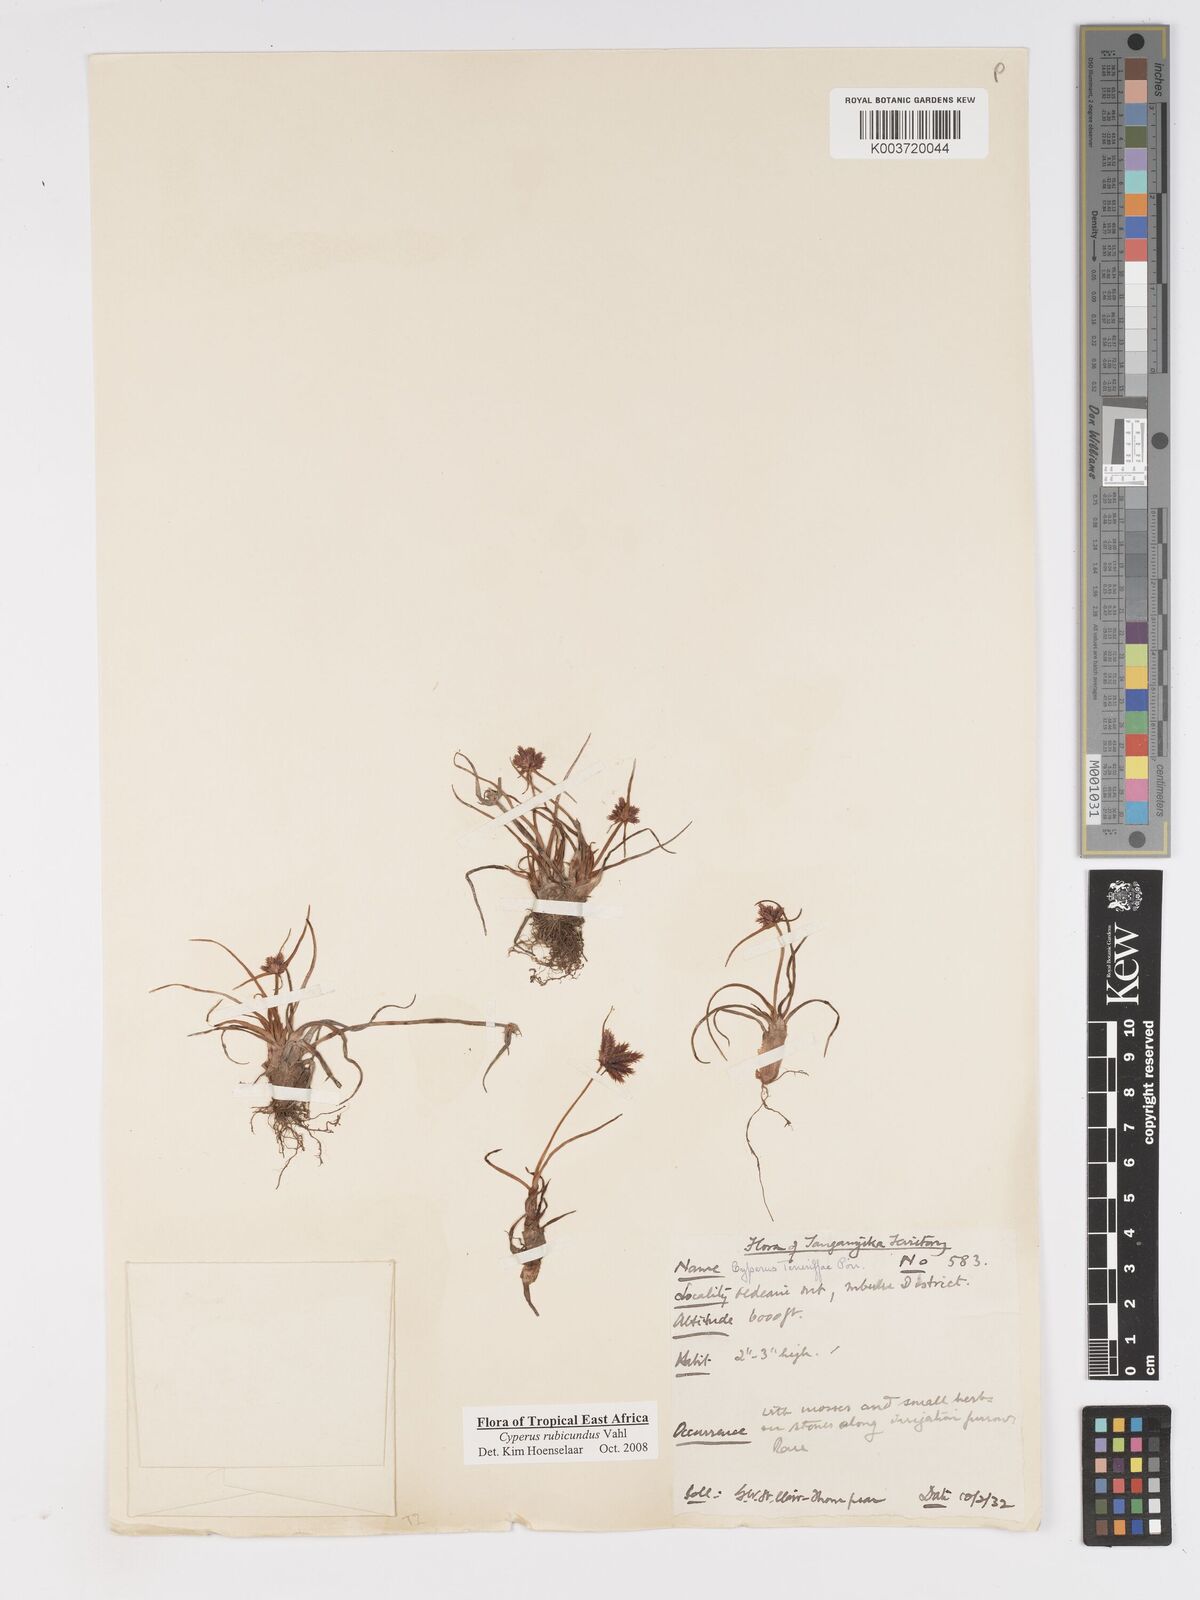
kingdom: Plantae
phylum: Tracheophyta
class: Liliopsida
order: Poales
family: Cyperaceae
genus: Cyperus
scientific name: Cyperus rubicundus
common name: Coco-grass
